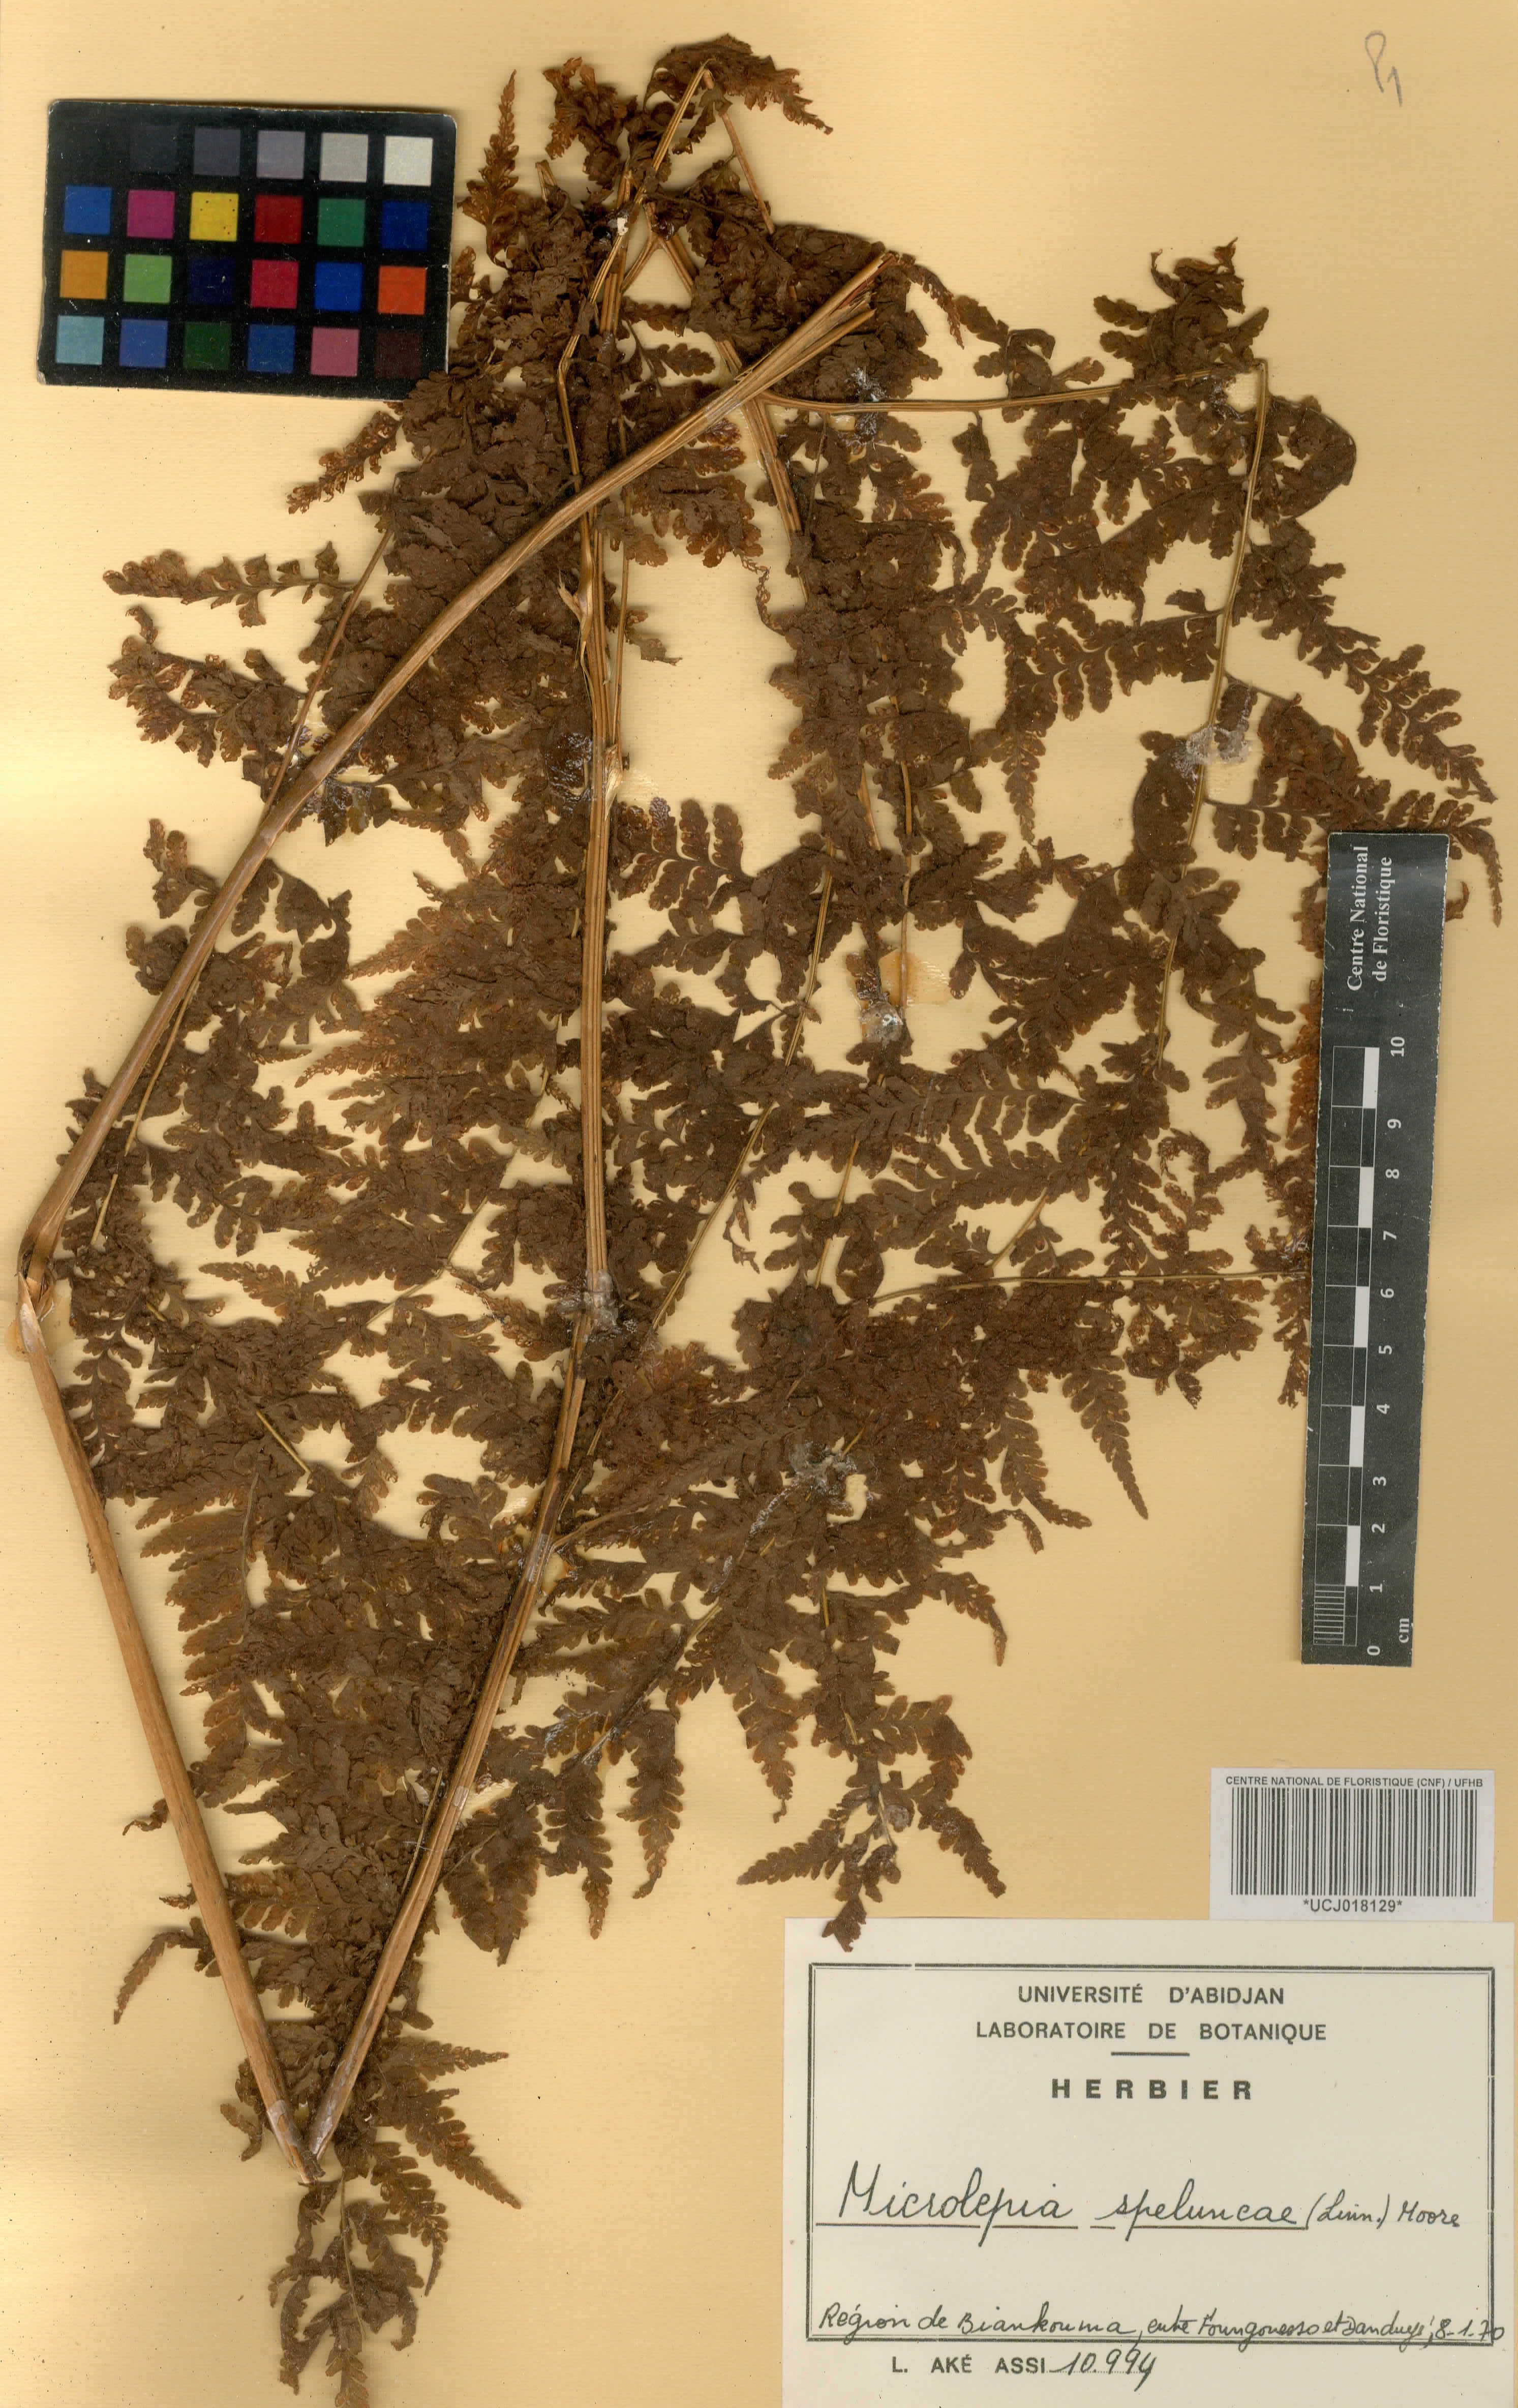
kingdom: Plantae
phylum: Tracheophyta
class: Polypodiopsida
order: Polypodiales
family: Dennstaedtiaceae
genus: Microlepia
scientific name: Microlepia speluncae
